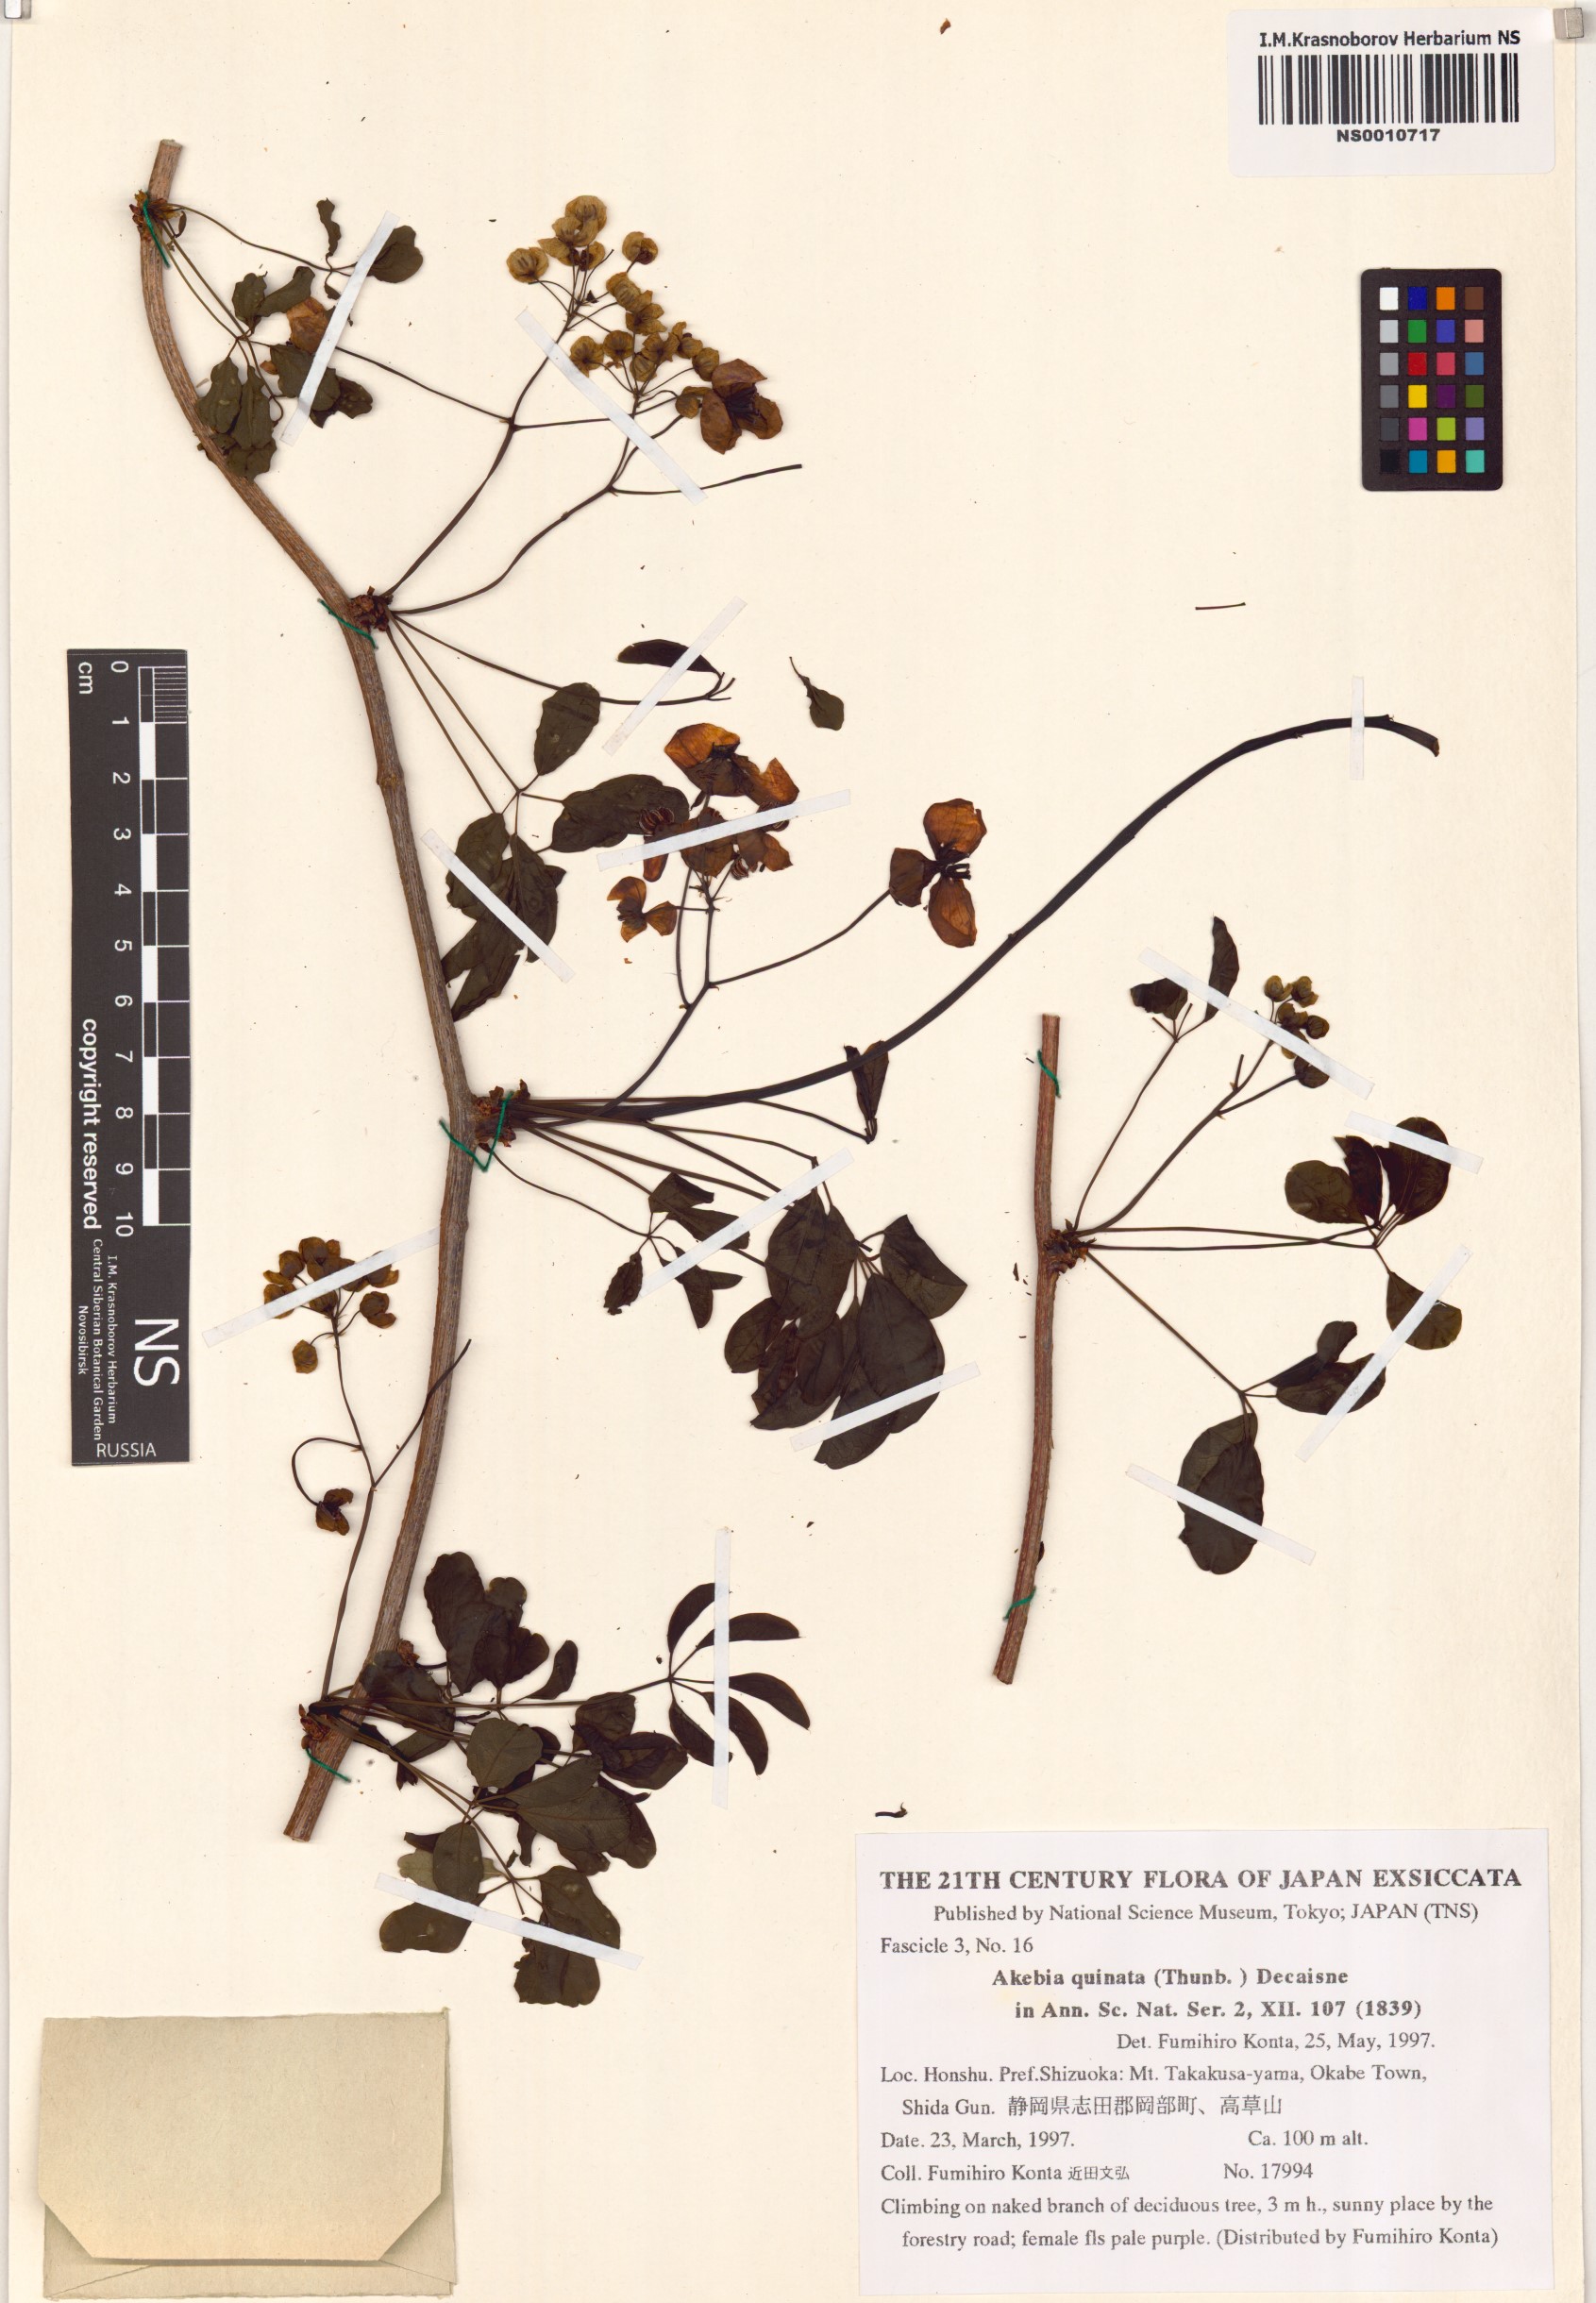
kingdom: Plantae
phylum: Tracheophyta
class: Magnoliopsida
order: Ranunculales
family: Lardizabalaceae
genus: Akebia
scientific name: Akebia quinata
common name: Five-leaf akebia
